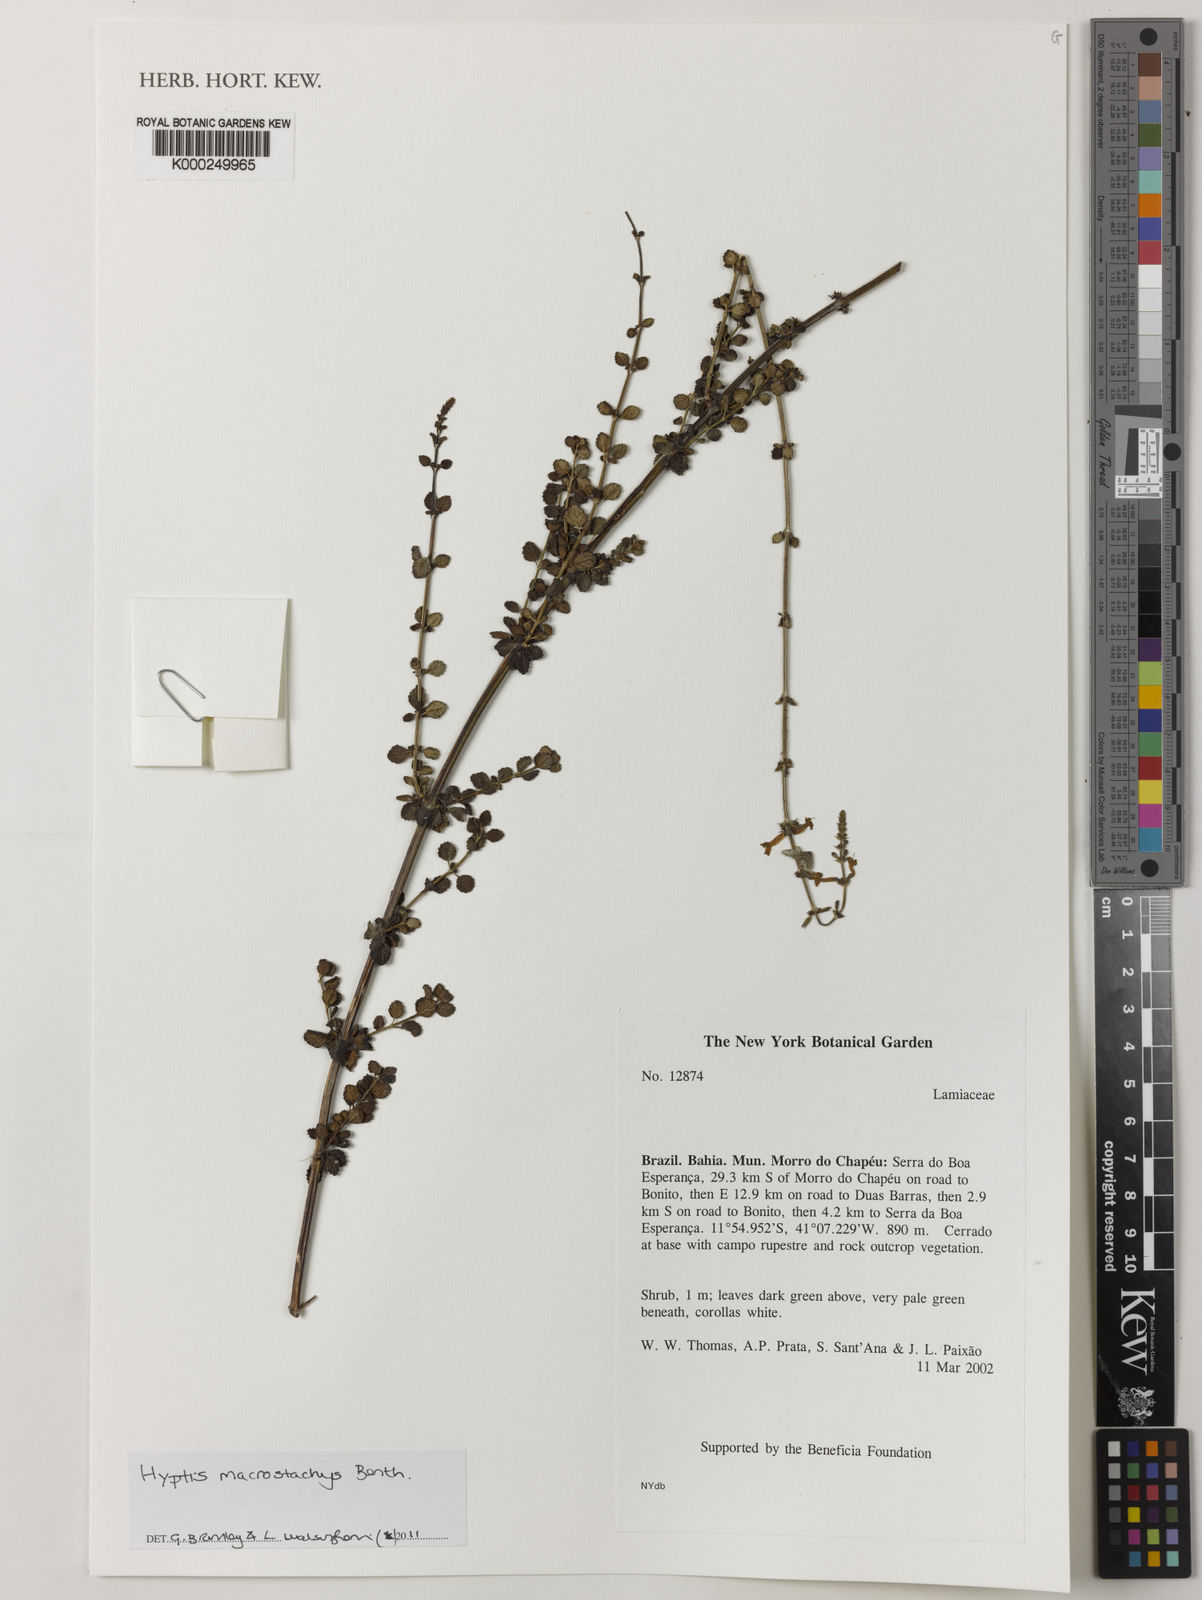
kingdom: Plantae
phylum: Tracheophyta
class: Magnoliopsida
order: Lamiales
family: Lamiaceae
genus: Leptohyptis
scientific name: Leptohyptis macrostachys
